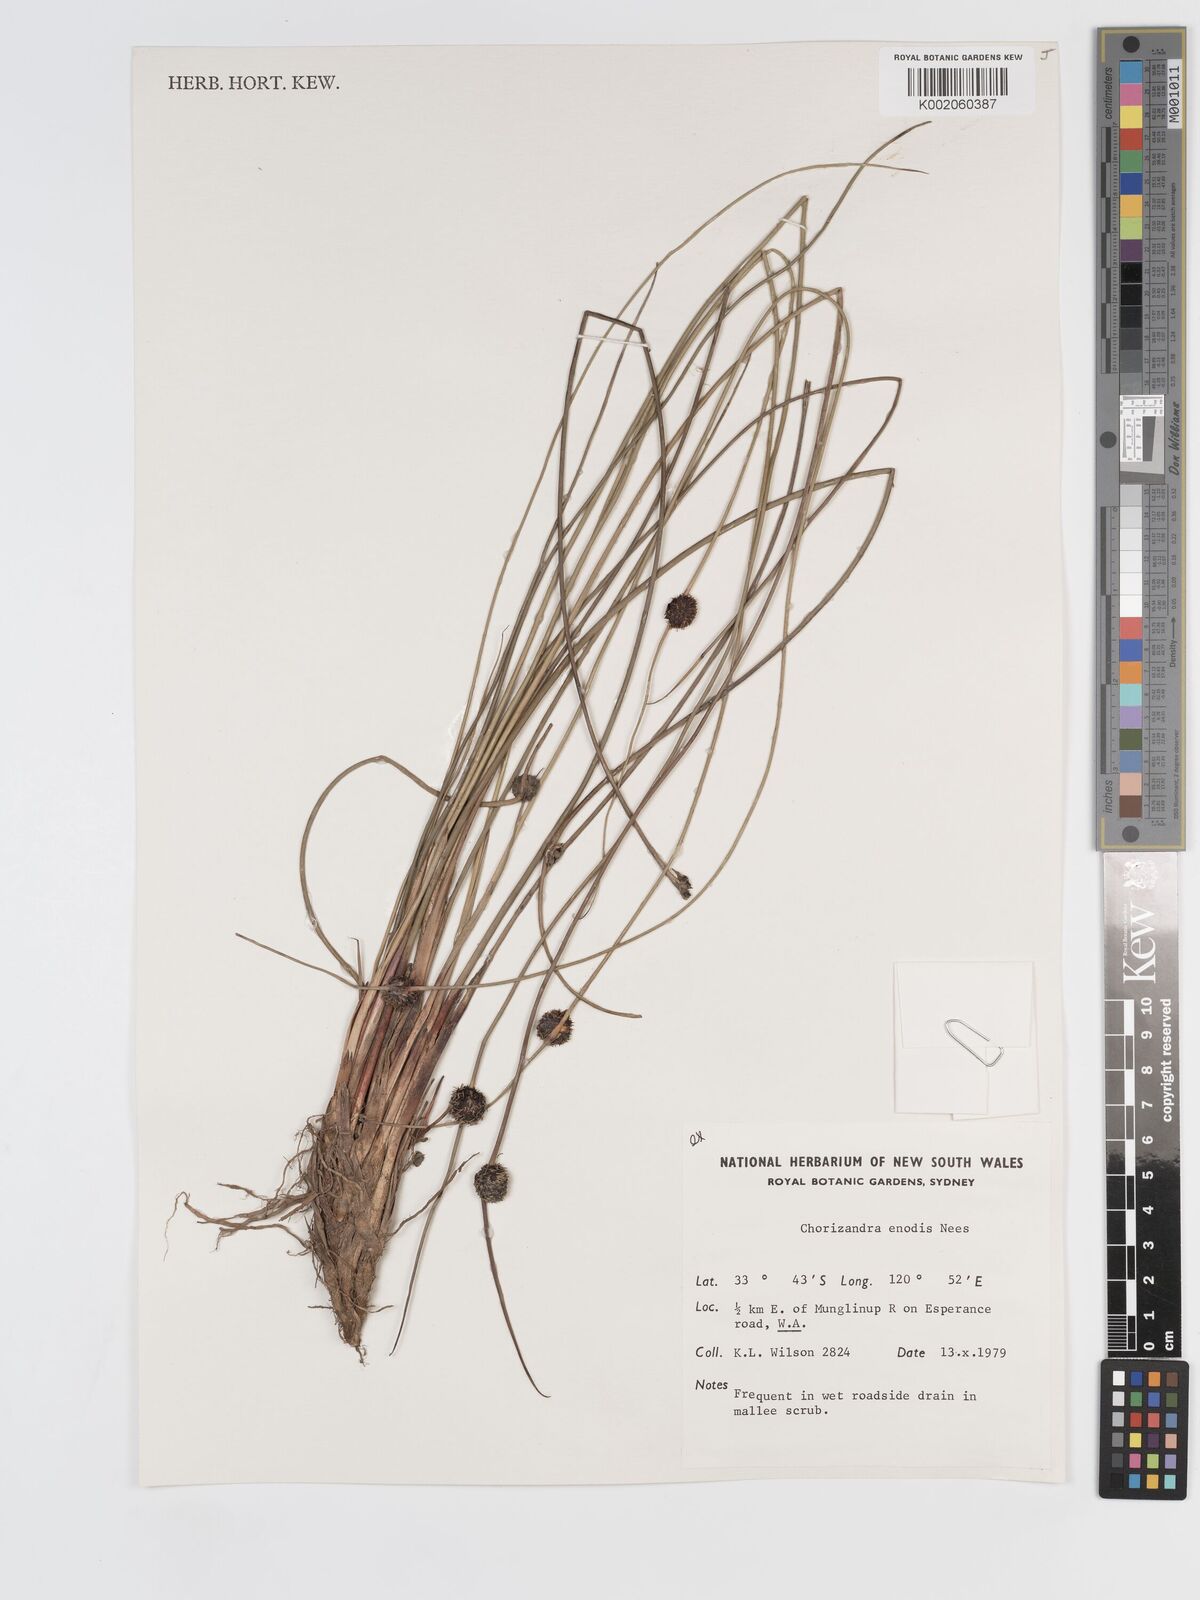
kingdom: Plantae
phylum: Tracheophyta
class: Liliopsida
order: Poales
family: Cyperaceae
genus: Chorizandra
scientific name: Chorizandra enodis
